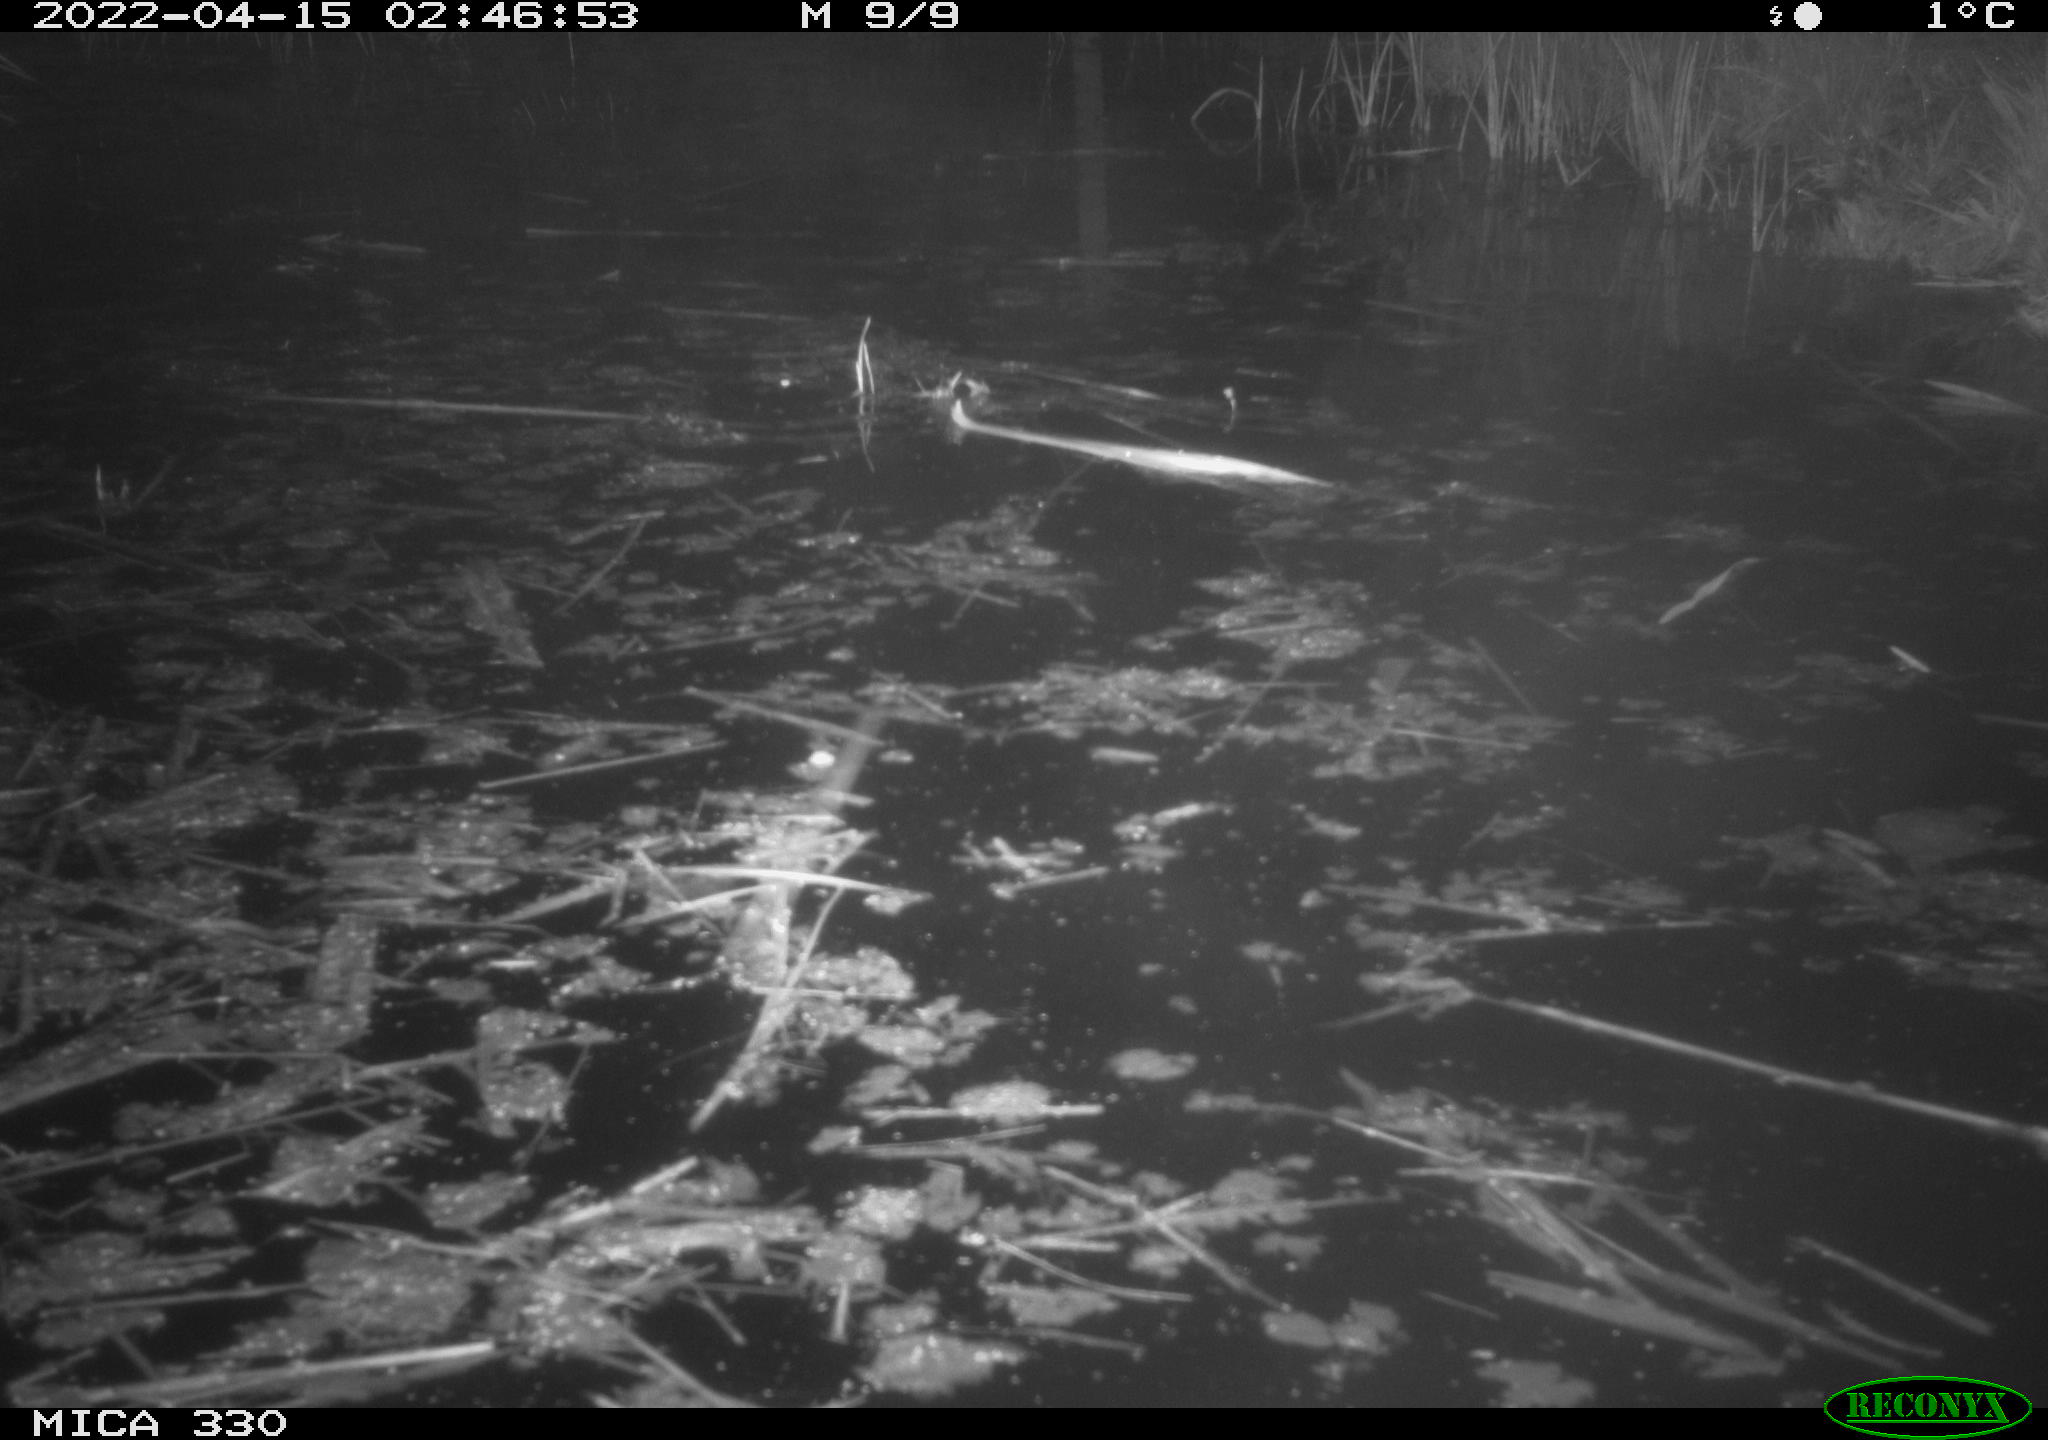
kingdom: Animalia
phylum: Chordata
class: Mammalia
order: Rodentia
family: Cricetidae
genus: Ondatra
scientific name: Ondatra zibethicus
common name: Muskrat
